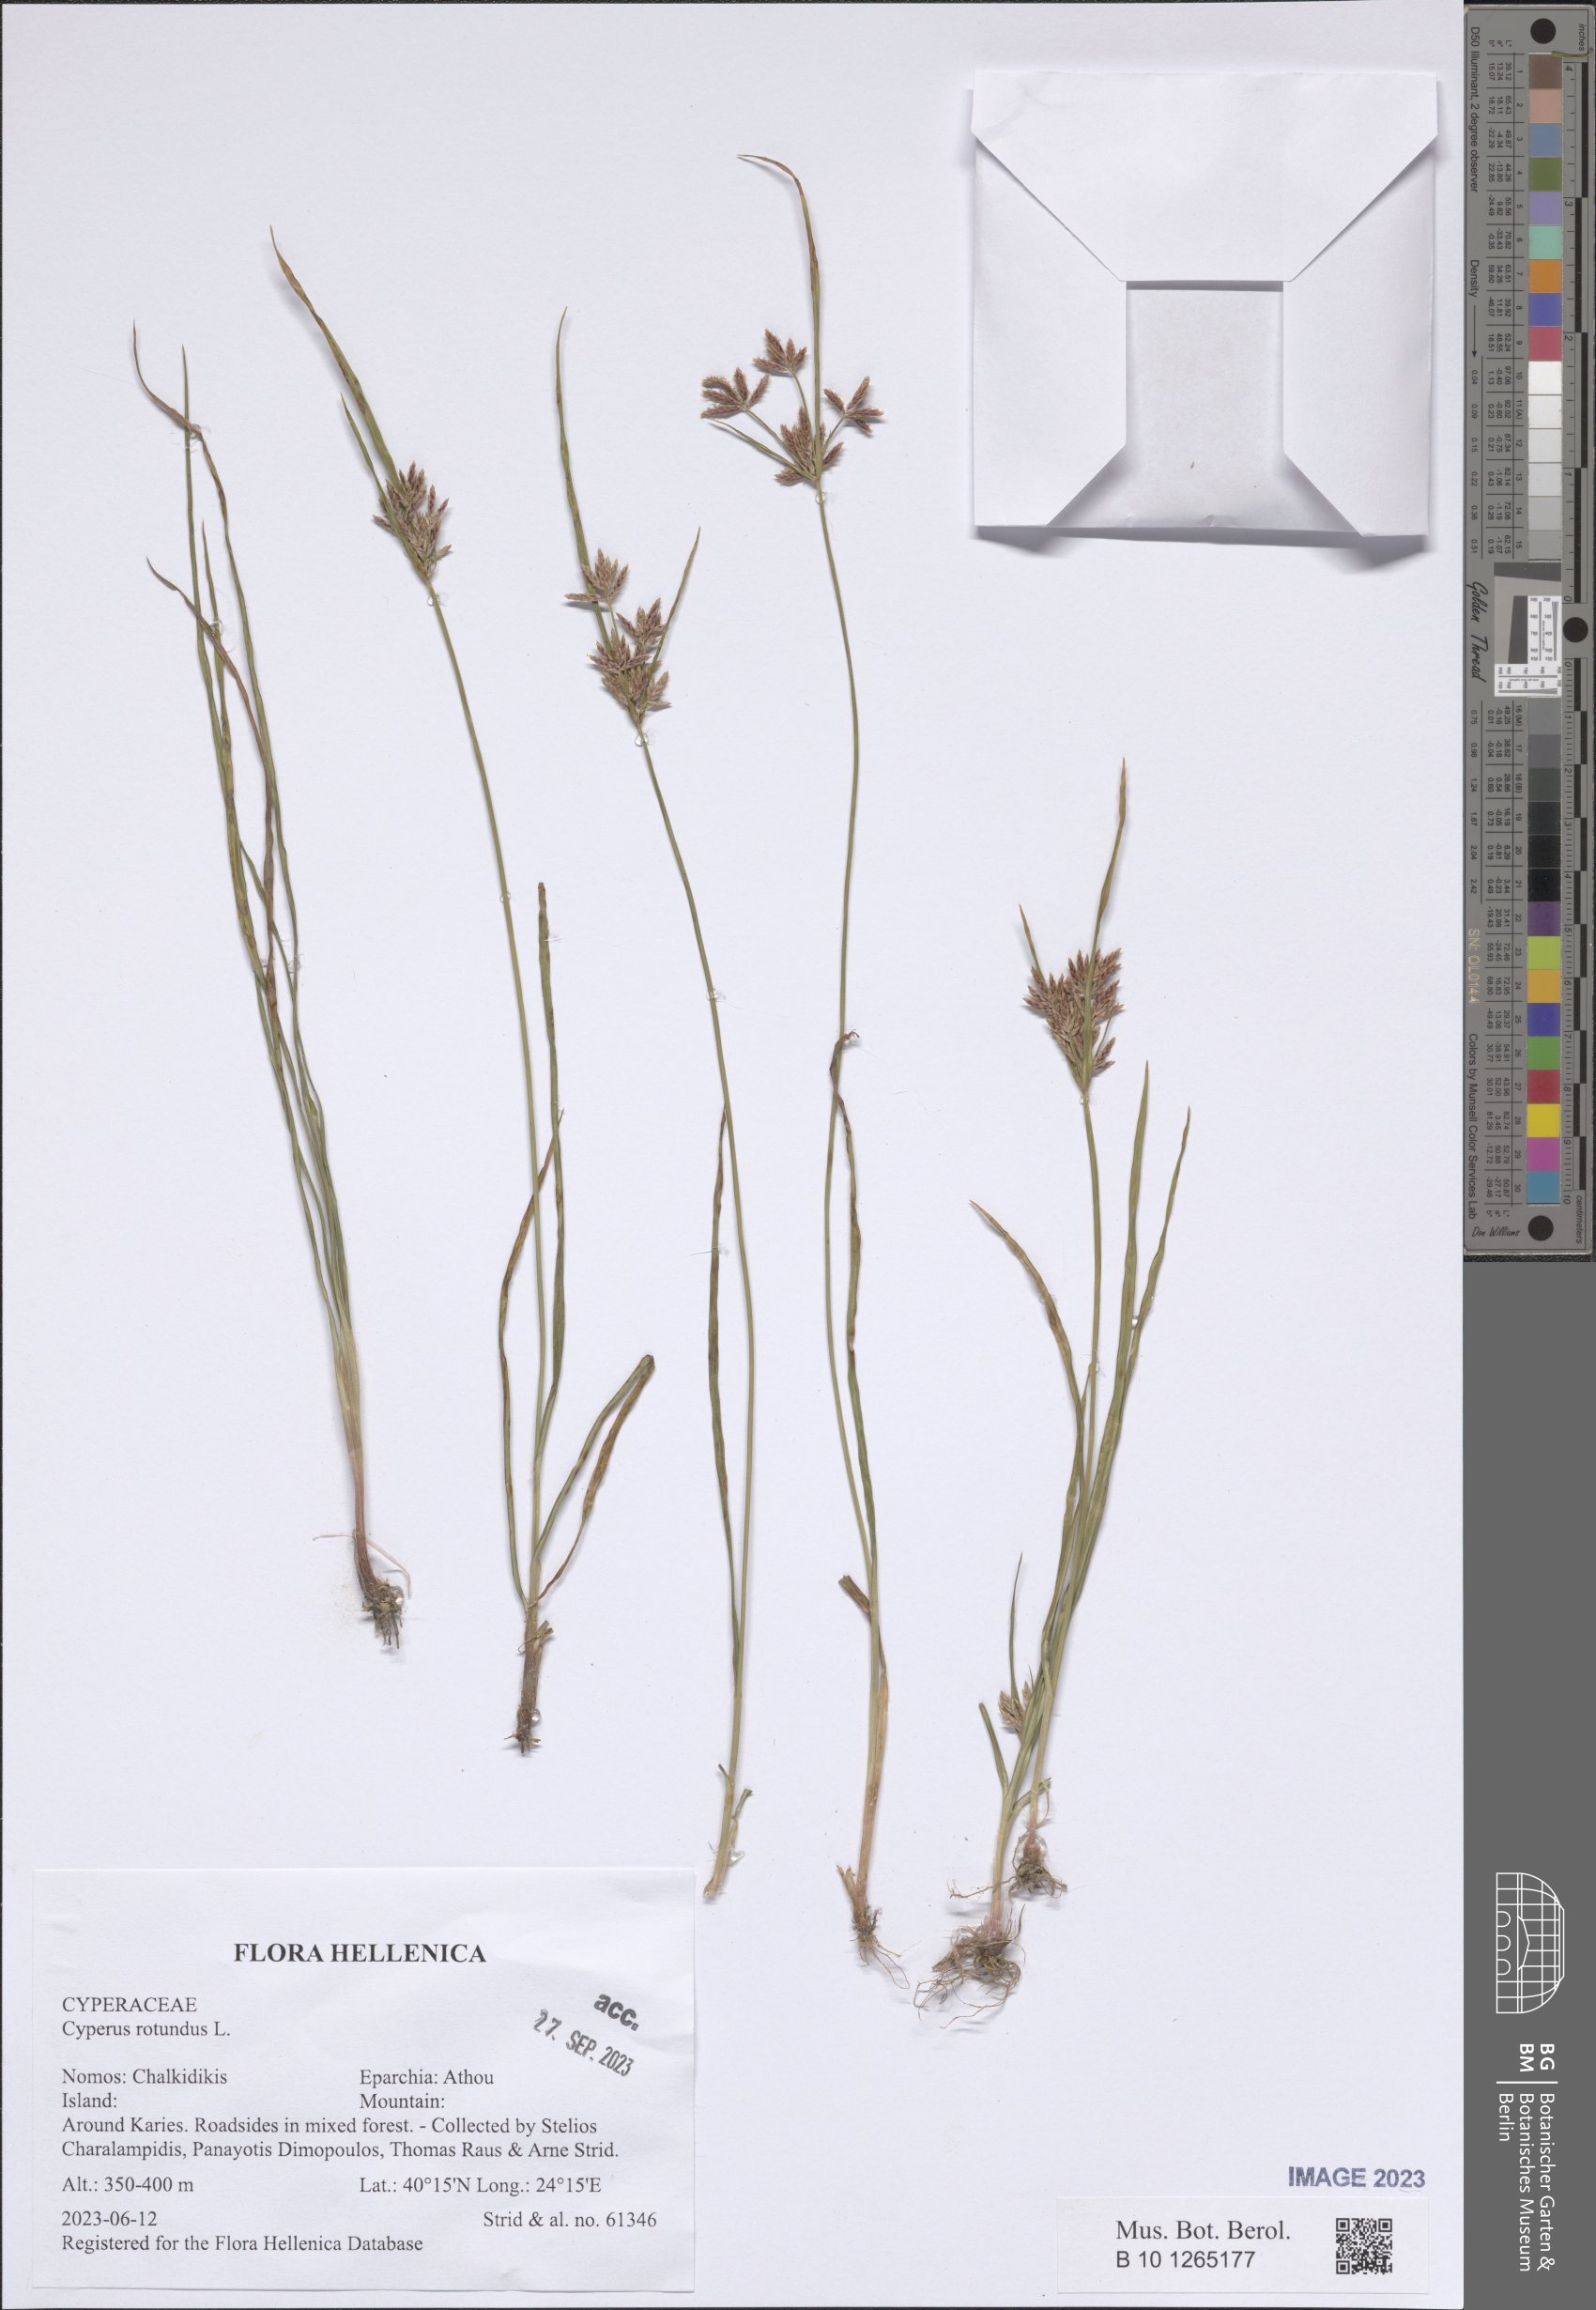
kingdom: Plantae
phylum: Tracheophyta
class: Liliopsida
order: Poales
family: Cyperaceae
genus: Cyperus
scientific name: Cyperus rotundus
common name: Nutgrass
